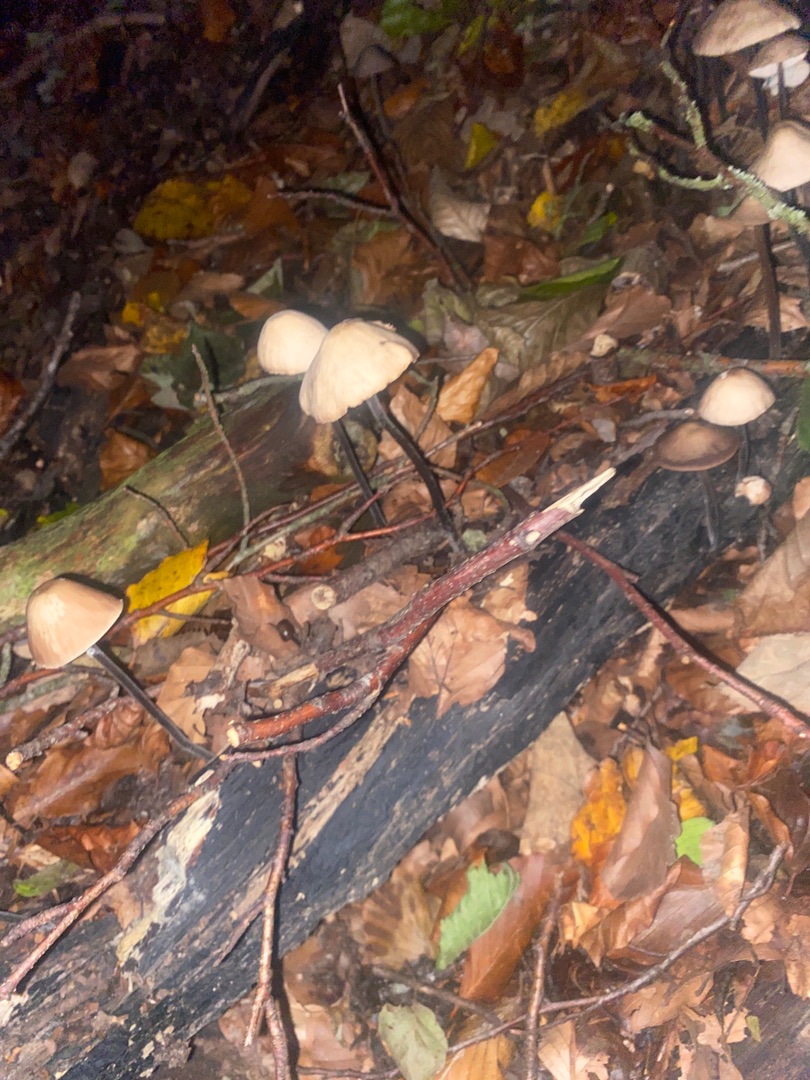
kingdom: Fungi
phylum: Basidiomycota
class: Agaricomycetes
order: Agaricales
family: Omphalotaceae
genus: Mycetinis
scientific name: Mycetinis alliaceus
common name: Stor løghat
